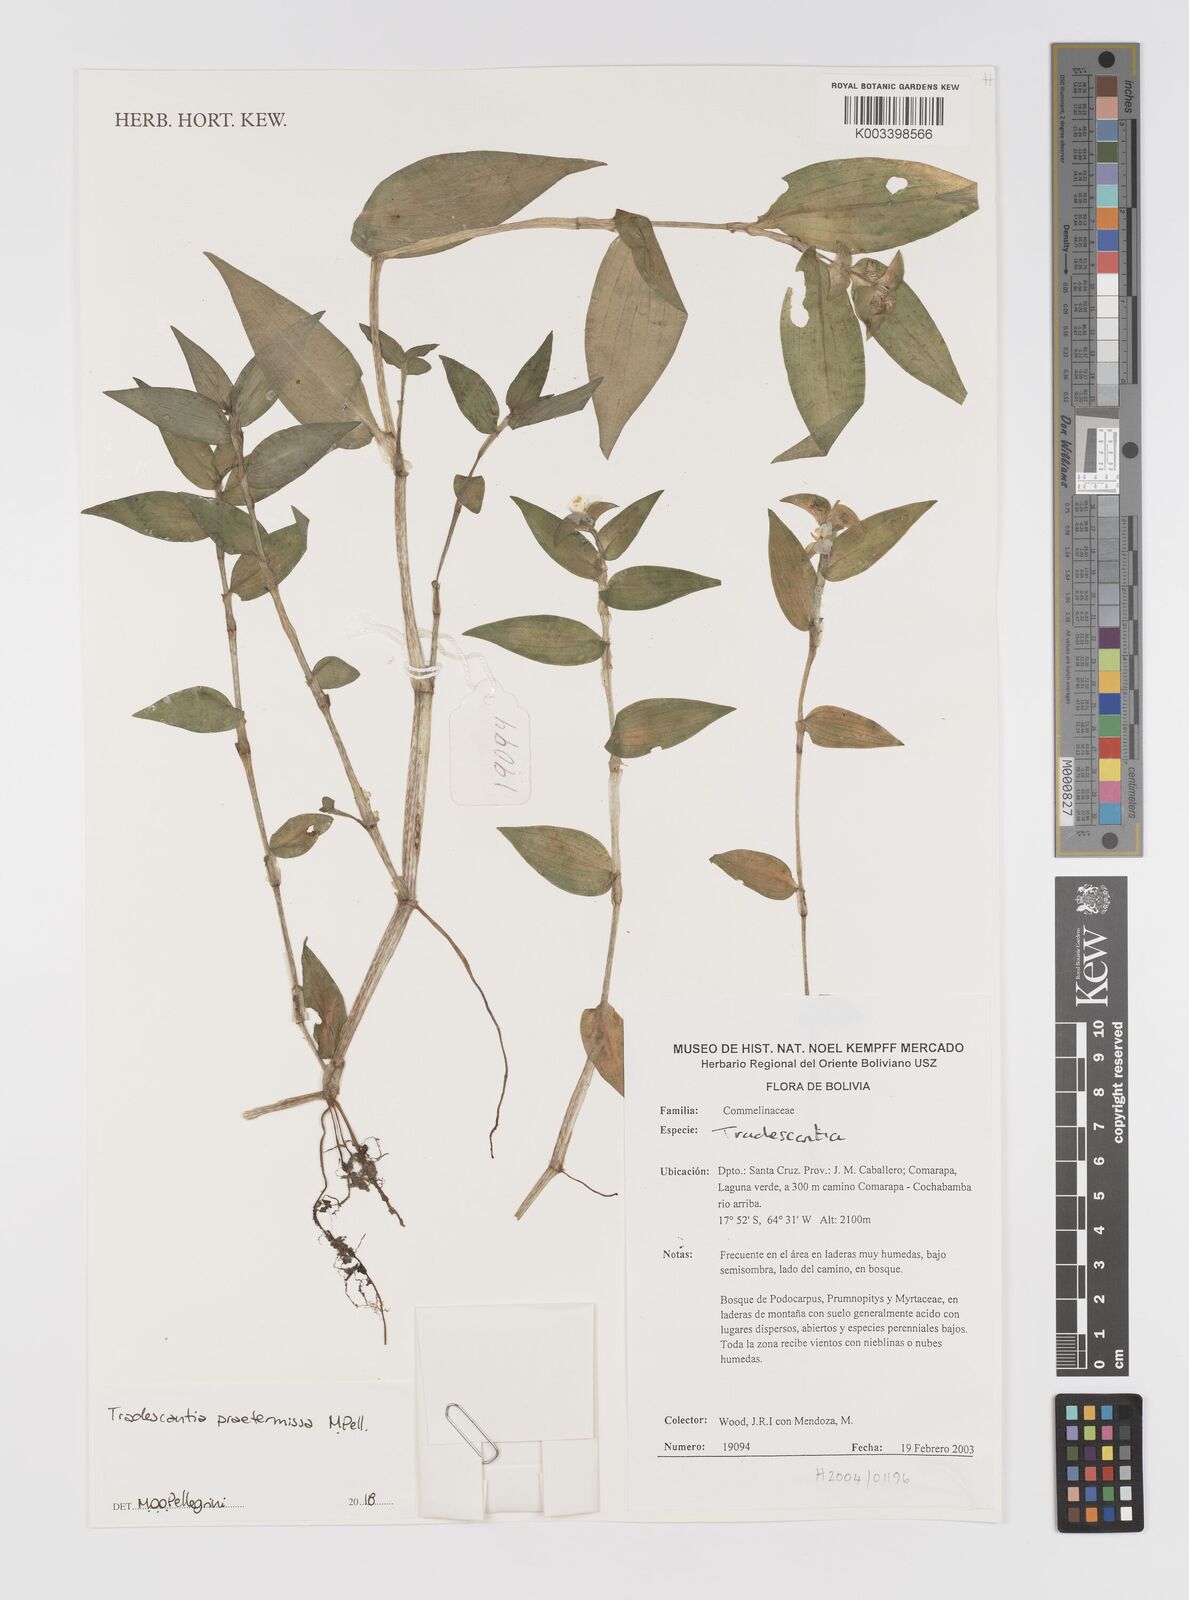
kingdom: Plantae
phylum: Tracheophyta
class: Liliopsida
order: Commelinales
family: Commelinaceae
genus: Tradescantia
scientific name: Tradescantia praetermissa
